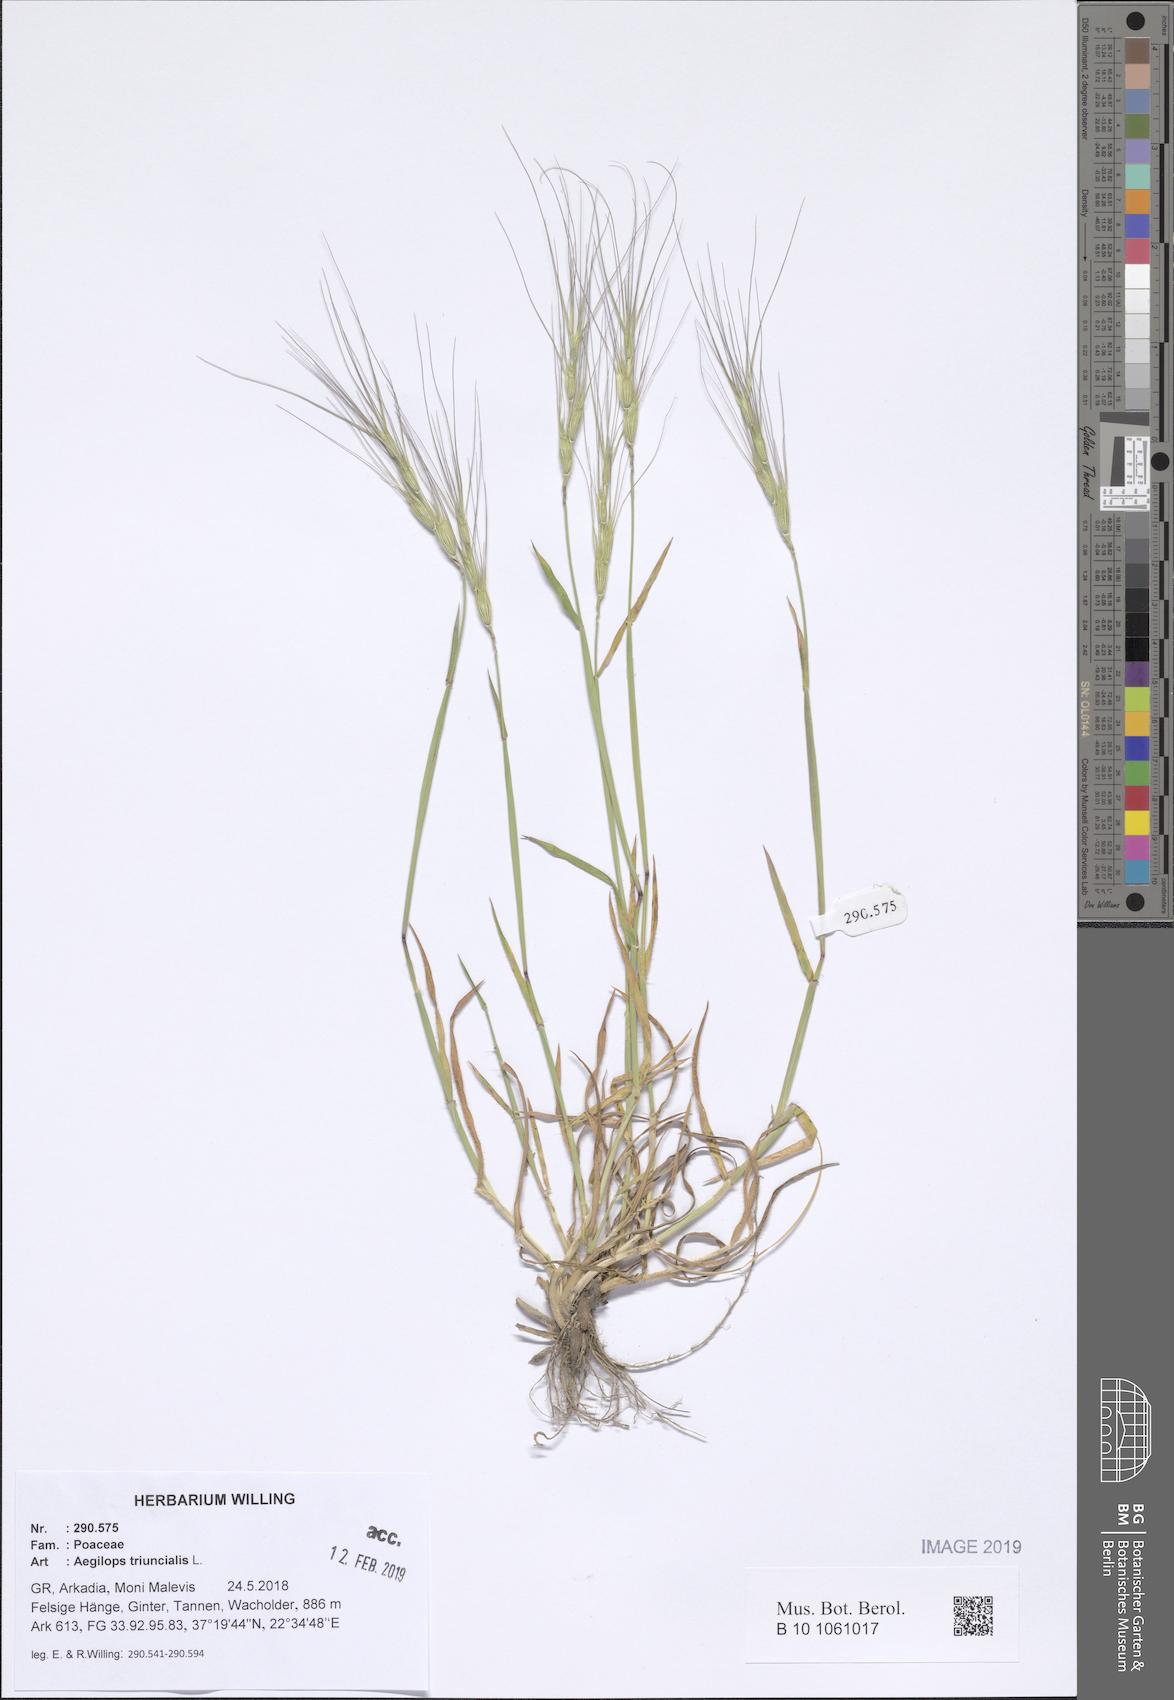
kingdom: Plantae
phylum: Tracheophyta
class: Liliopsida
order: Poales
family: Poaceae
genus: Aegilops
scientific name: Aegilops triuncialis
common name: Barb goat grass
